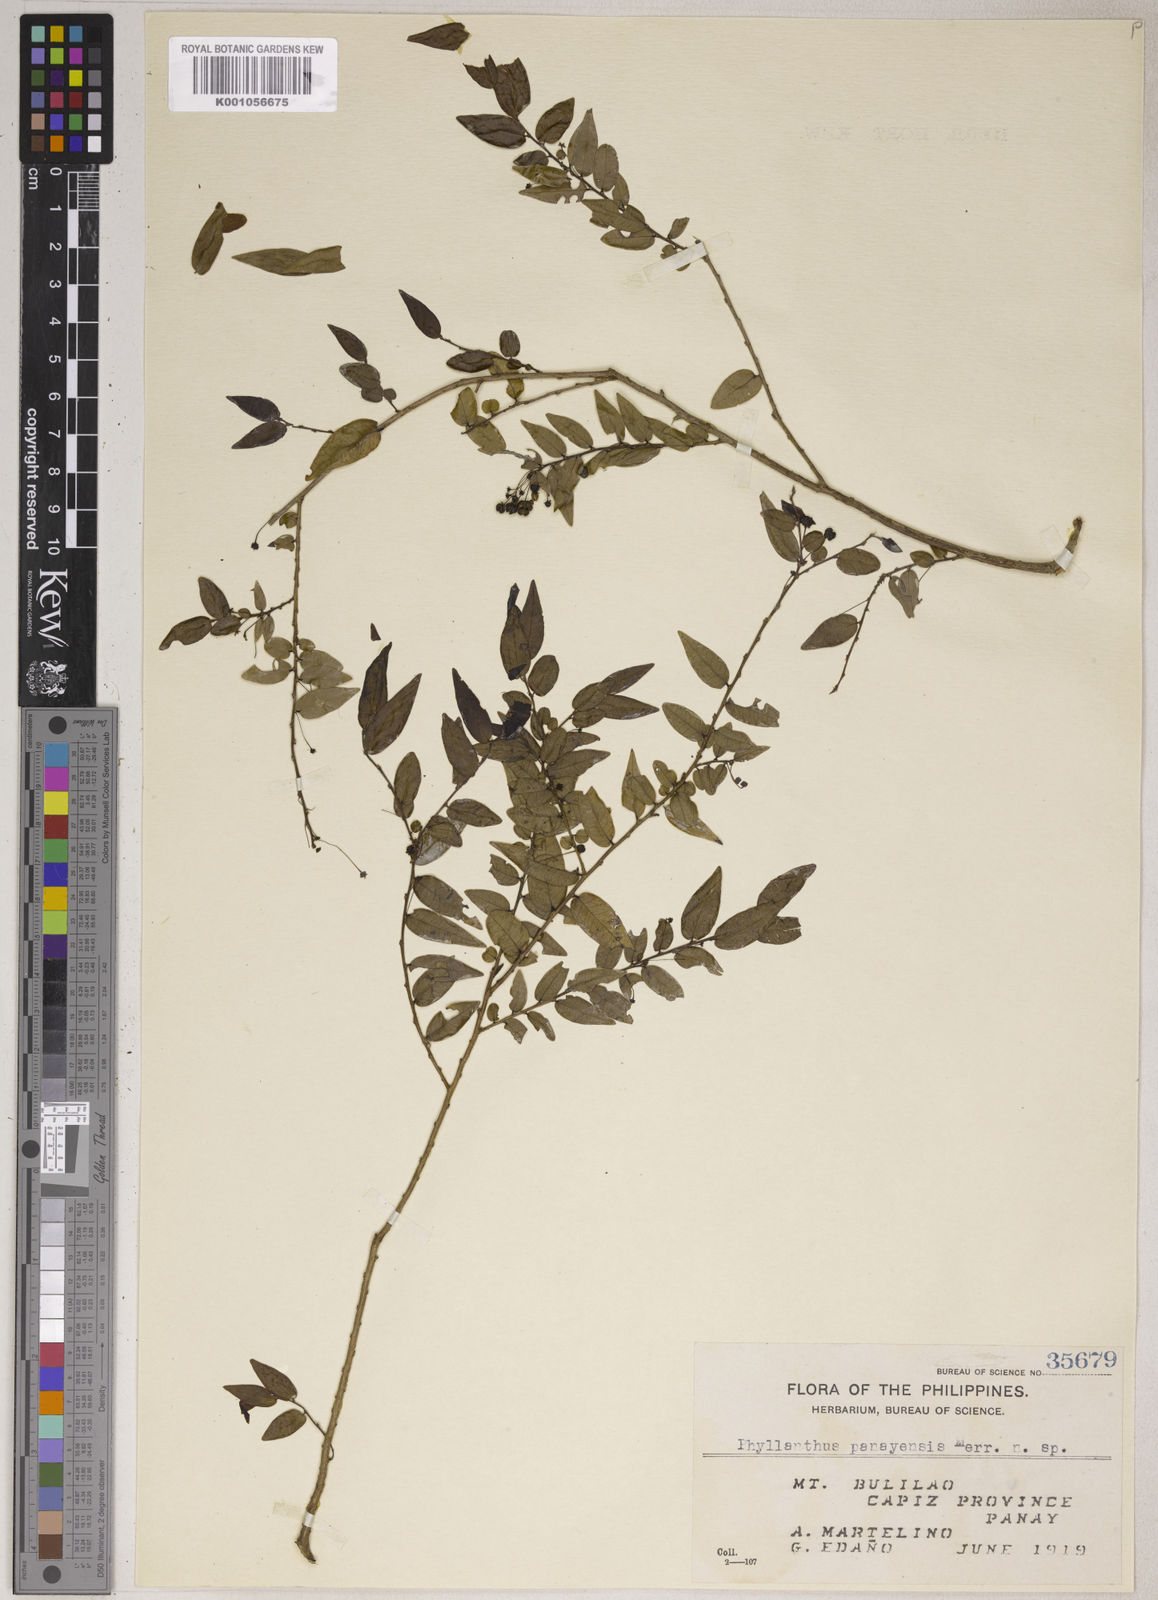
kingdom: Plantae
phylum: Tracheophyta
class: Magnoliopsida
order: Malpighiales
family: Phyllanthaceae
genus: Phyllanthus
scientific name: Phyllanthus lancifolius
